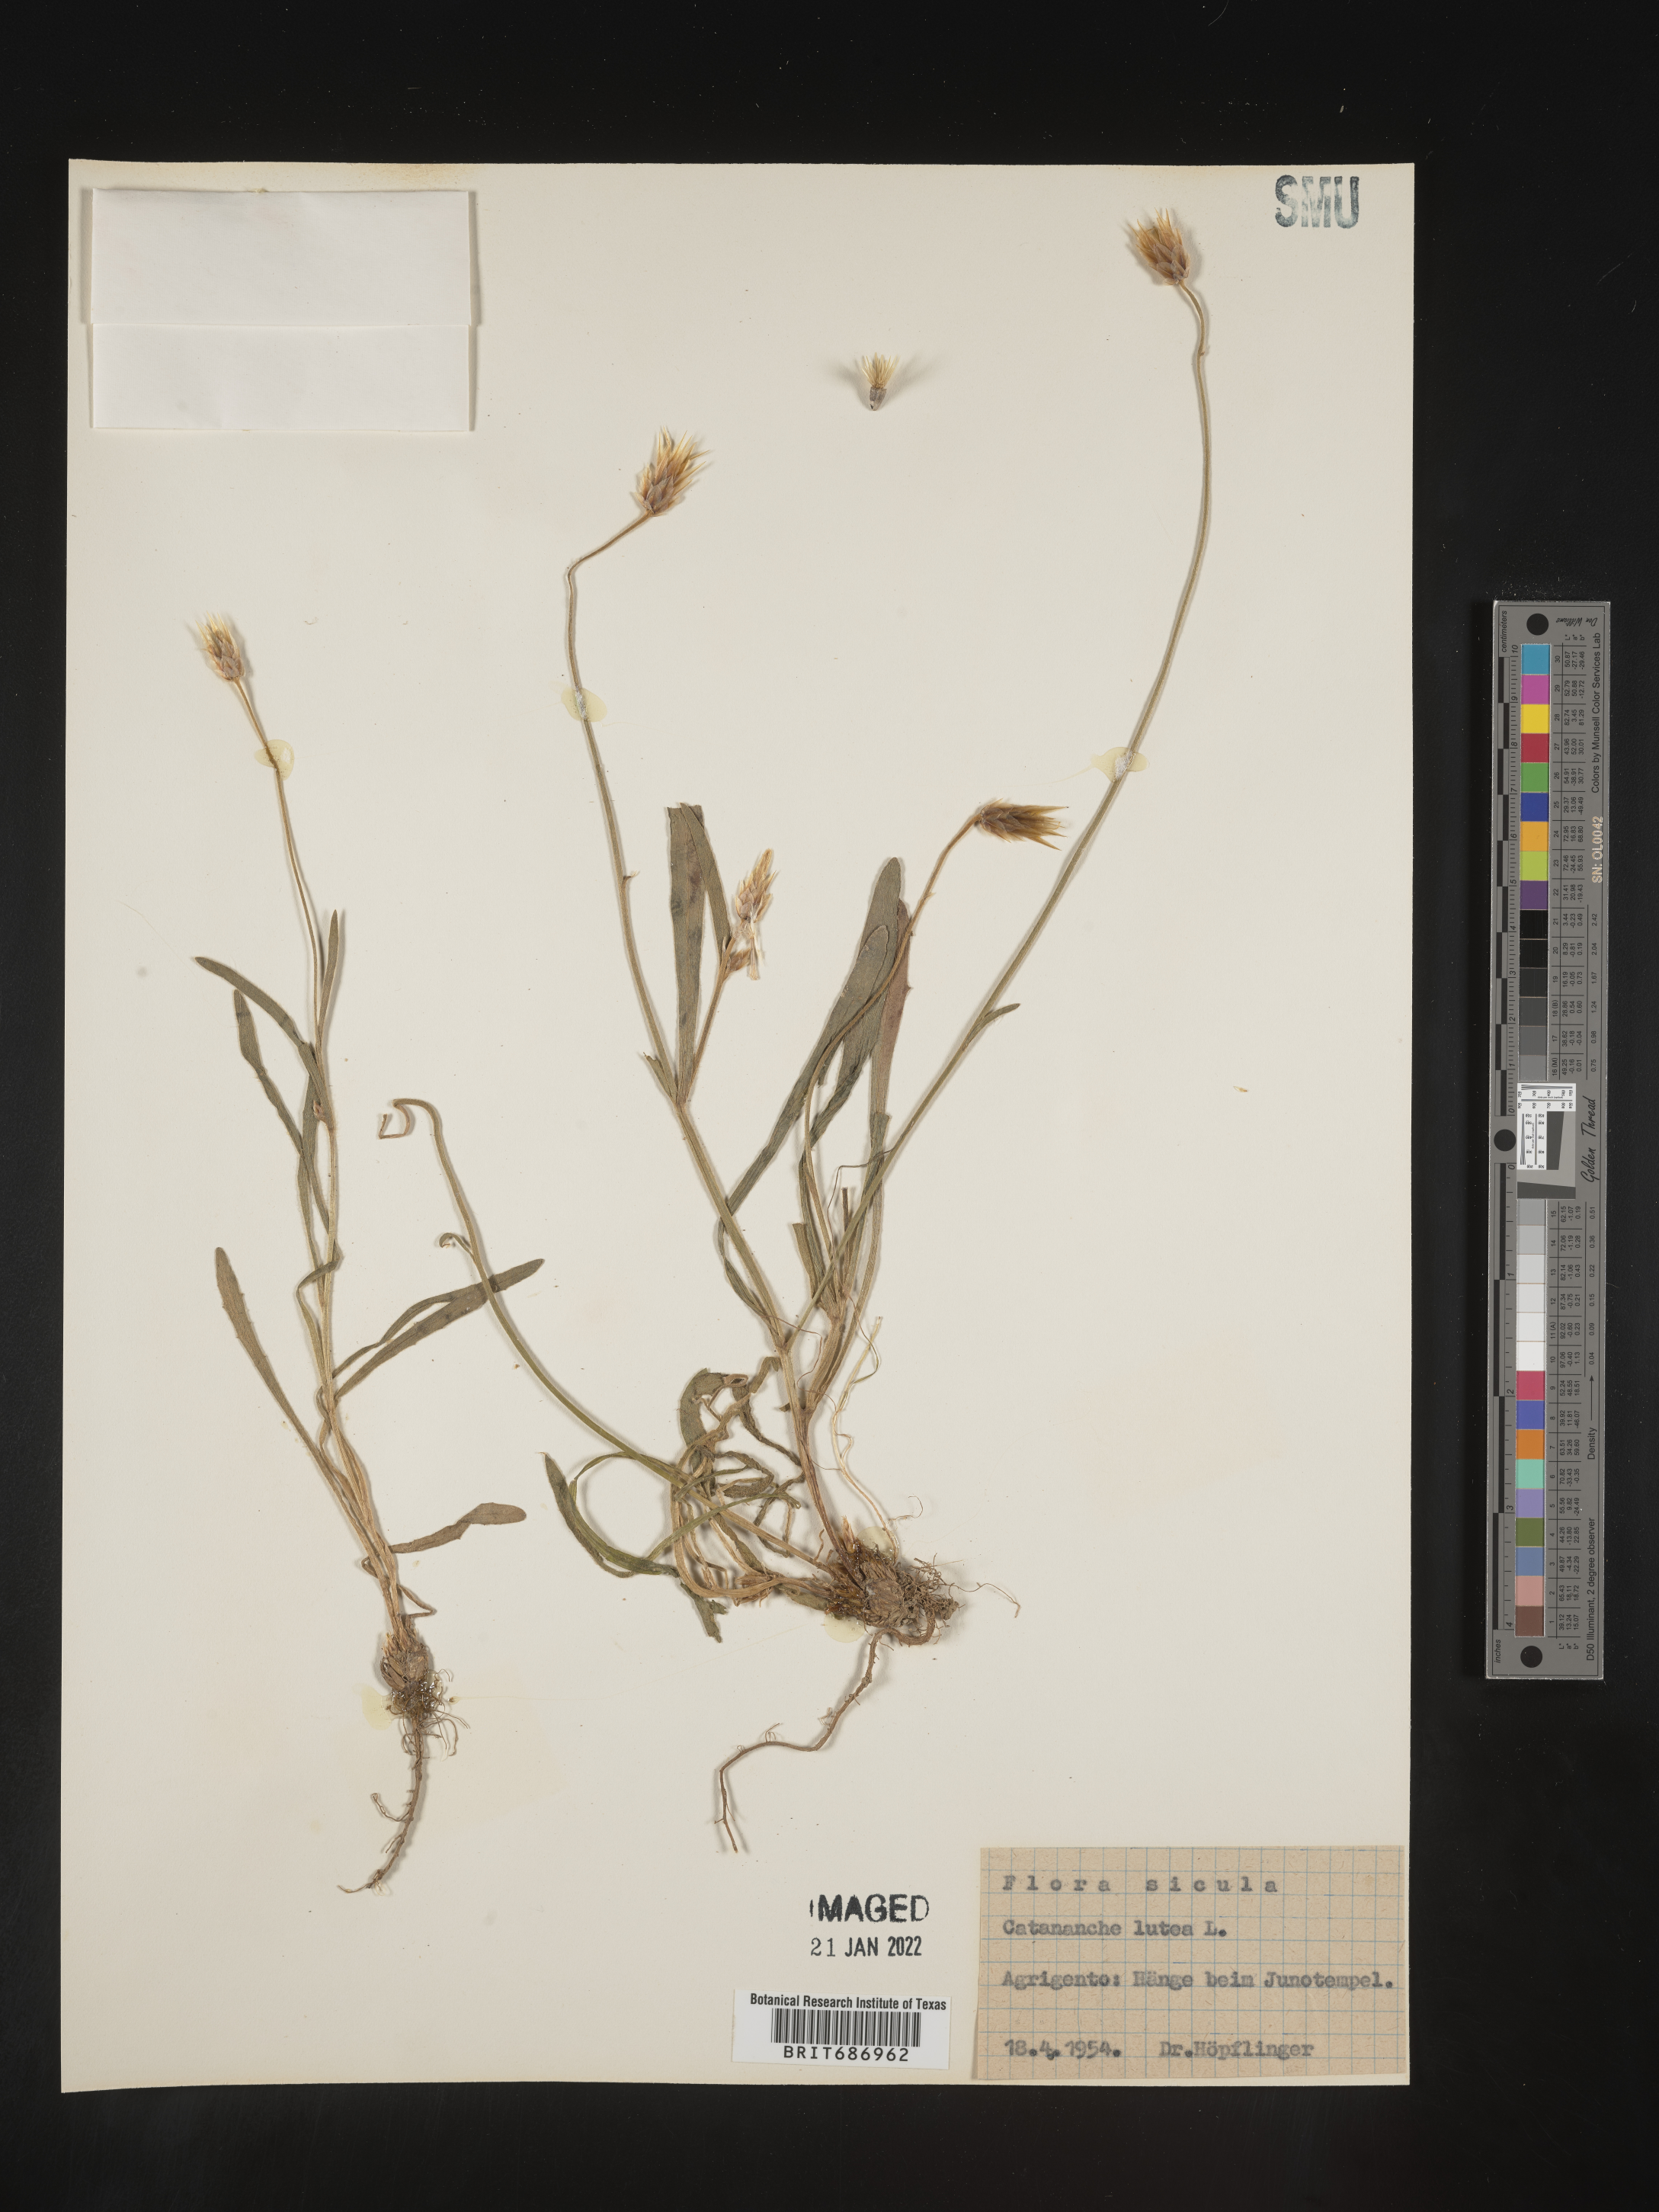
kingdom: Plantae
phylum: Tracheophyta
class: Magnoliopsida
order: Asterales
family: Asteraceae
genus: Catananche
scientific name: Catananche
